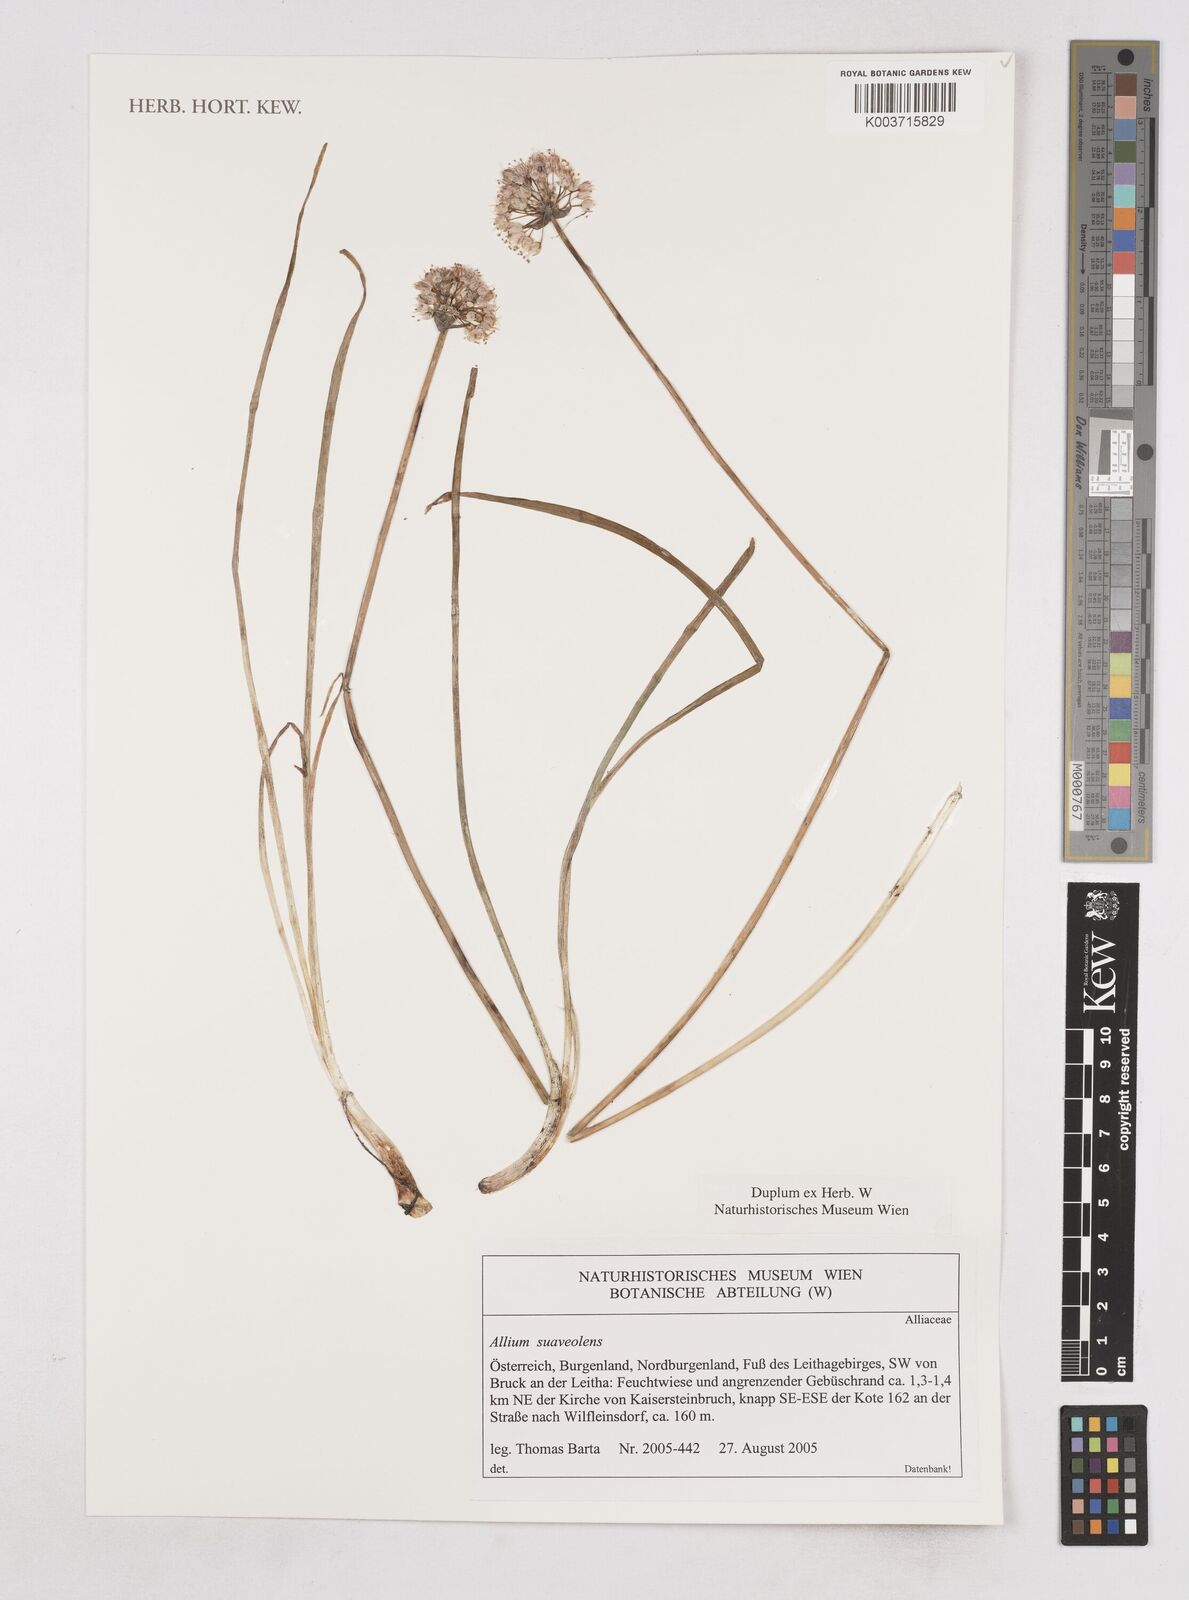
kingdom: Plantae
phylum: Tracheophyta
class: Liliopsida
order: Asparagales
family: Amaryllidaceae
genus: Allium
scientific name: Allium suaveolens
